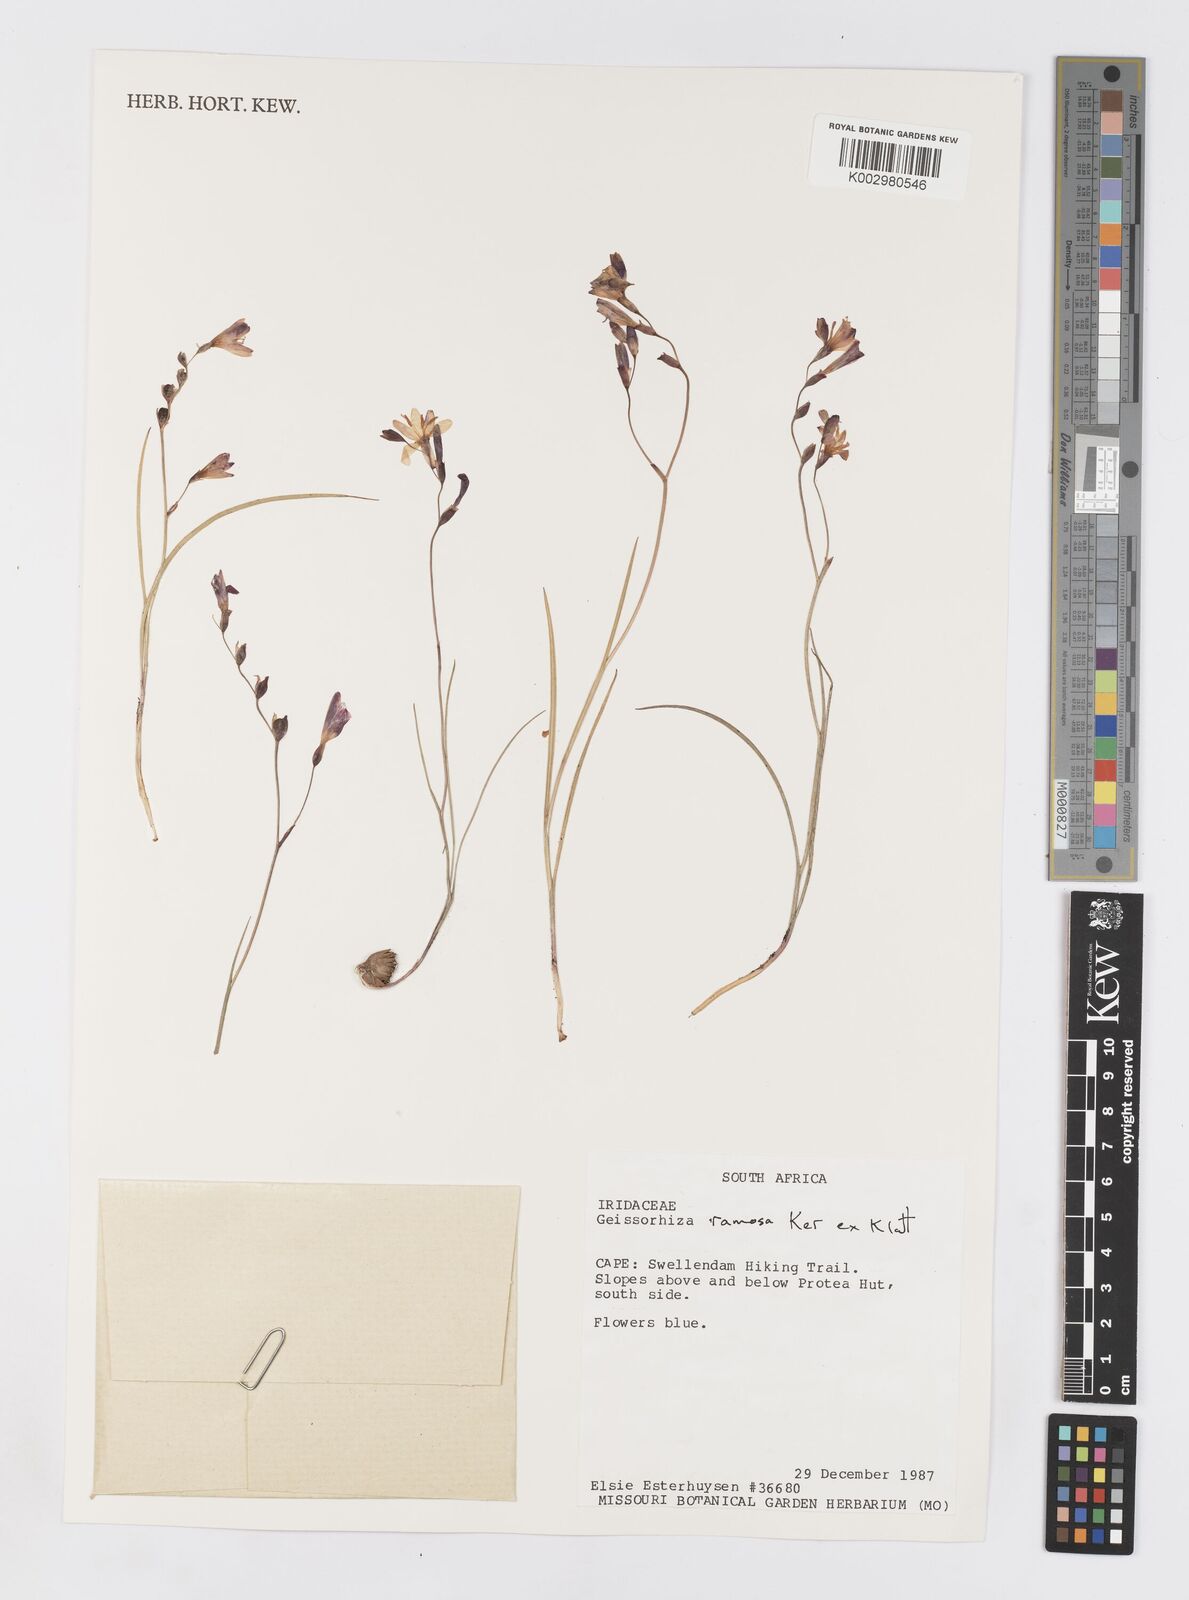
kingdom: Plantae
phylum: Tracheophyta
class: Liliopsida
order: Asparagales
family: Iridaceae
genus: Geissorhiza
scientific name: Geissorhiza ramosa
